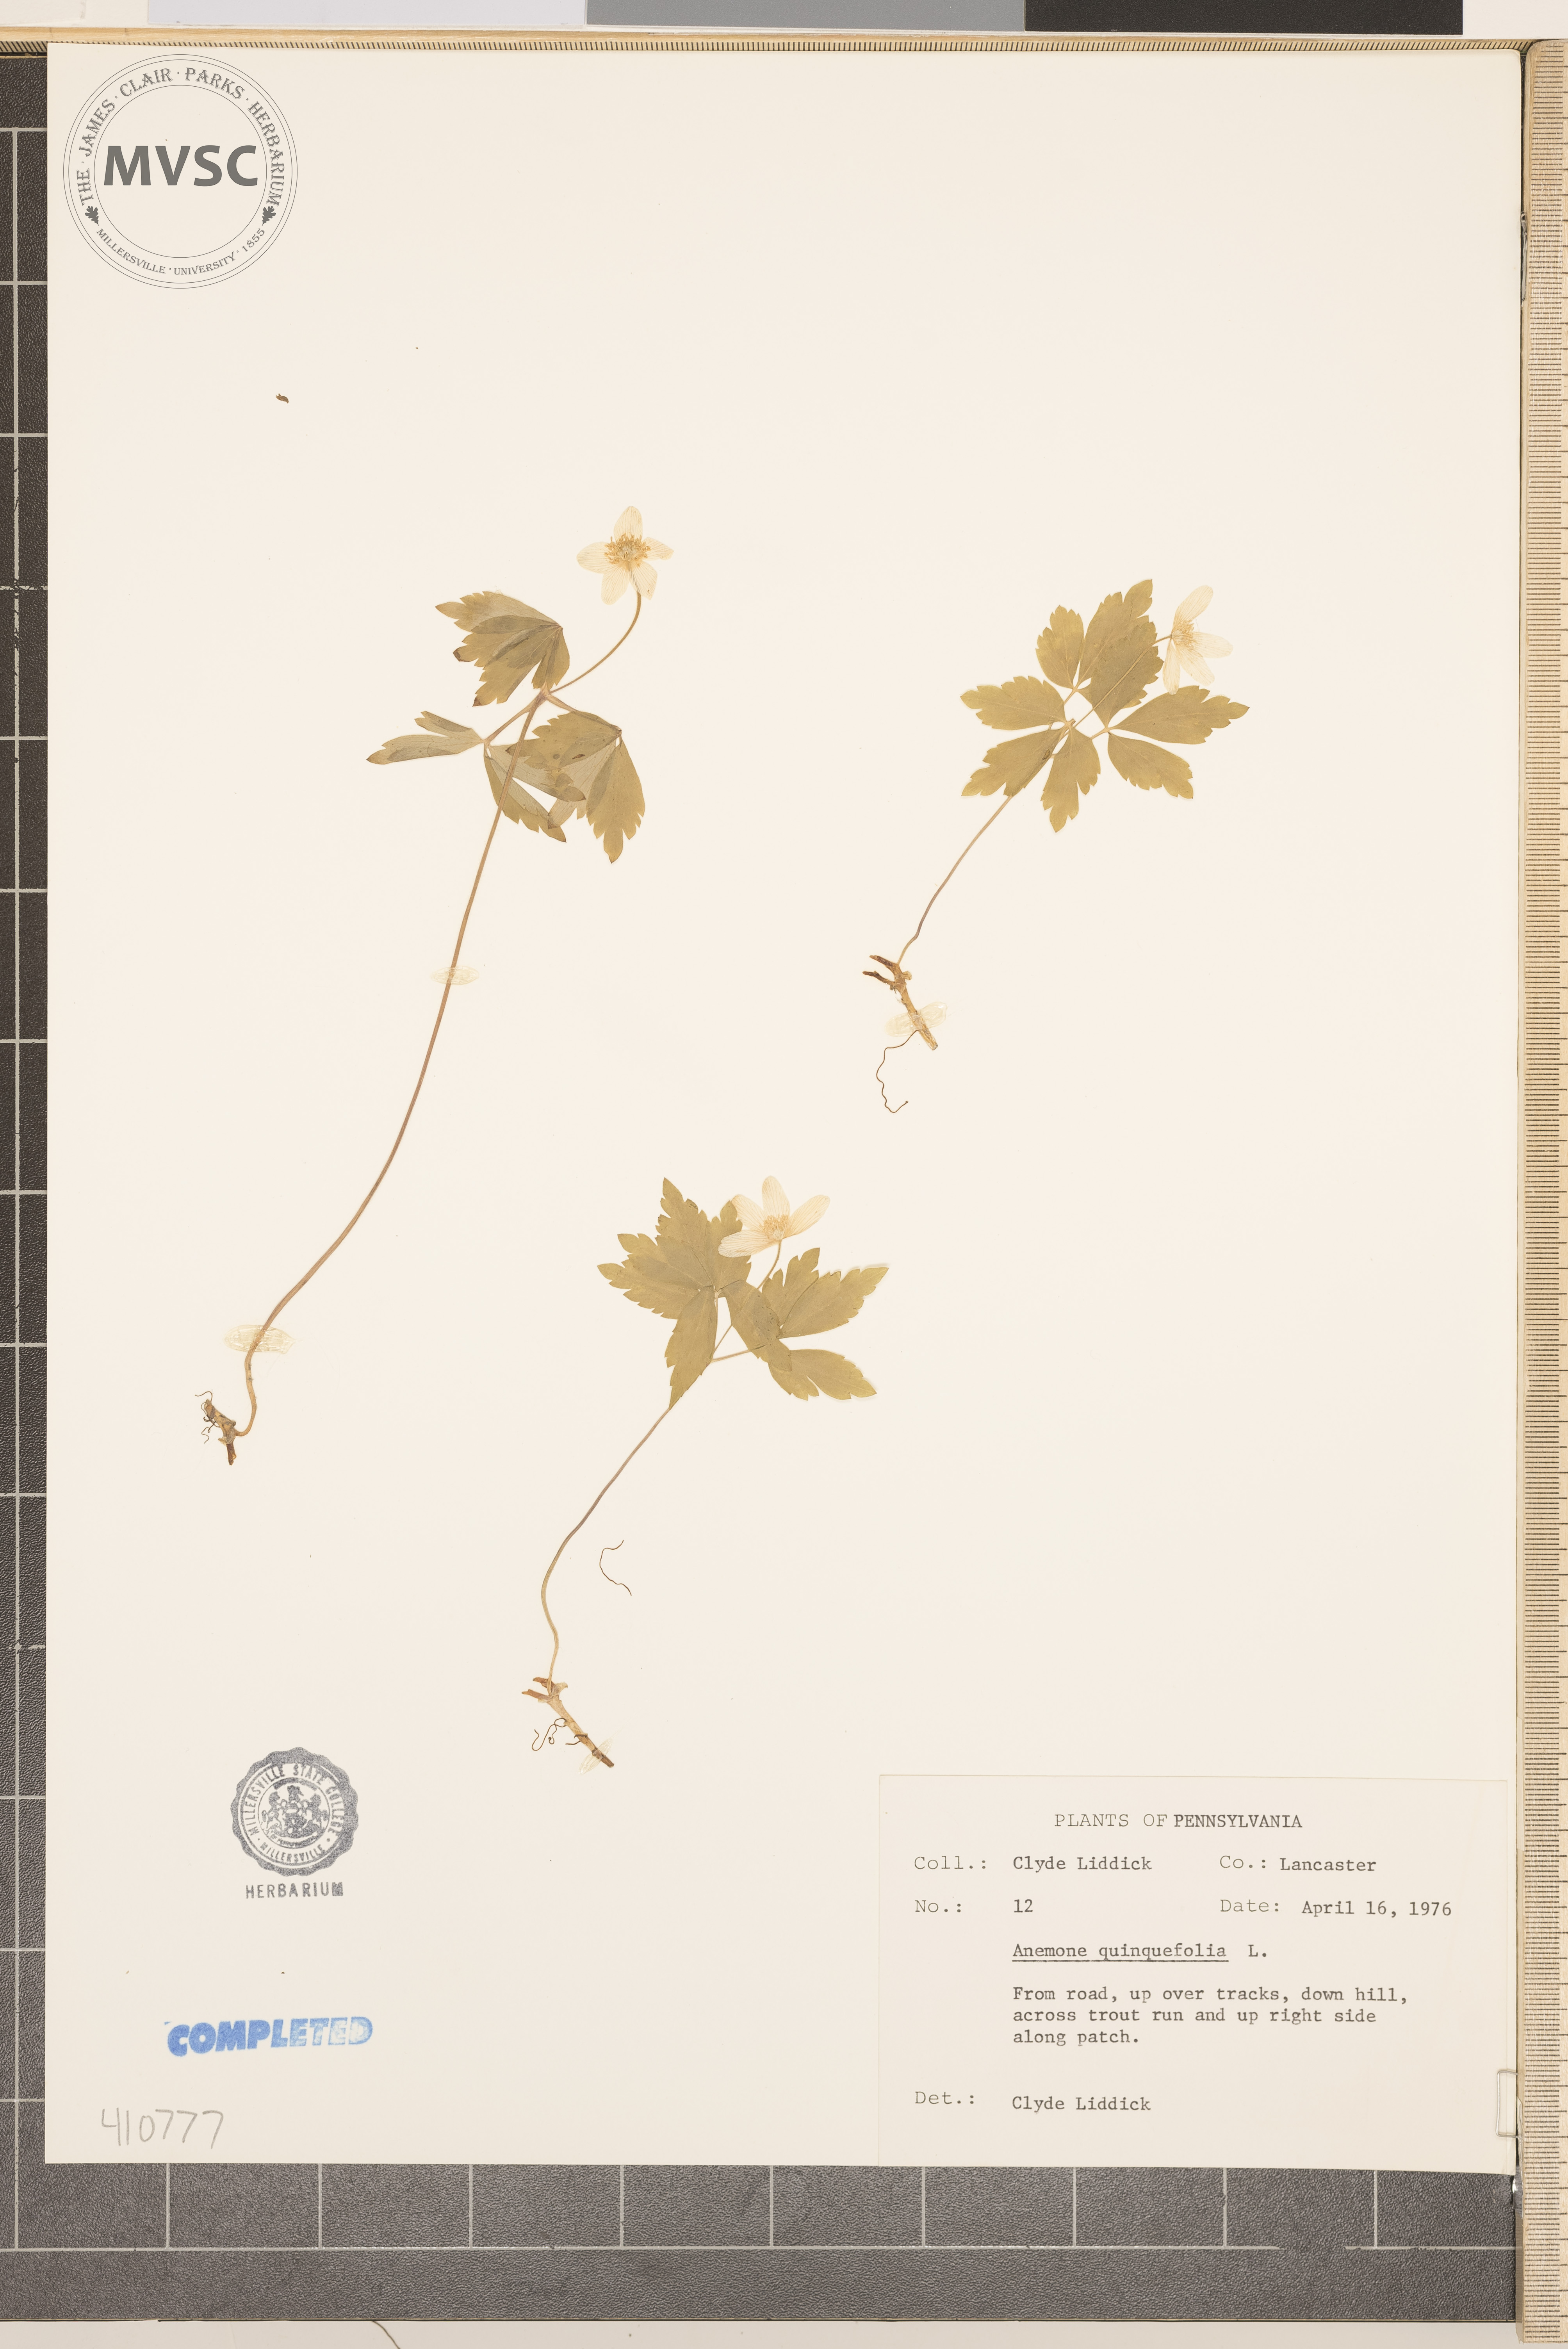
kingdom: Plantae
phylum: Tracheophyta
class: Magnoliopsida
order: Ranunculales
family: Ranunculaceae
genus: Anemone
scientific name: Anemone quinquefolia
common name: Wood anemone
